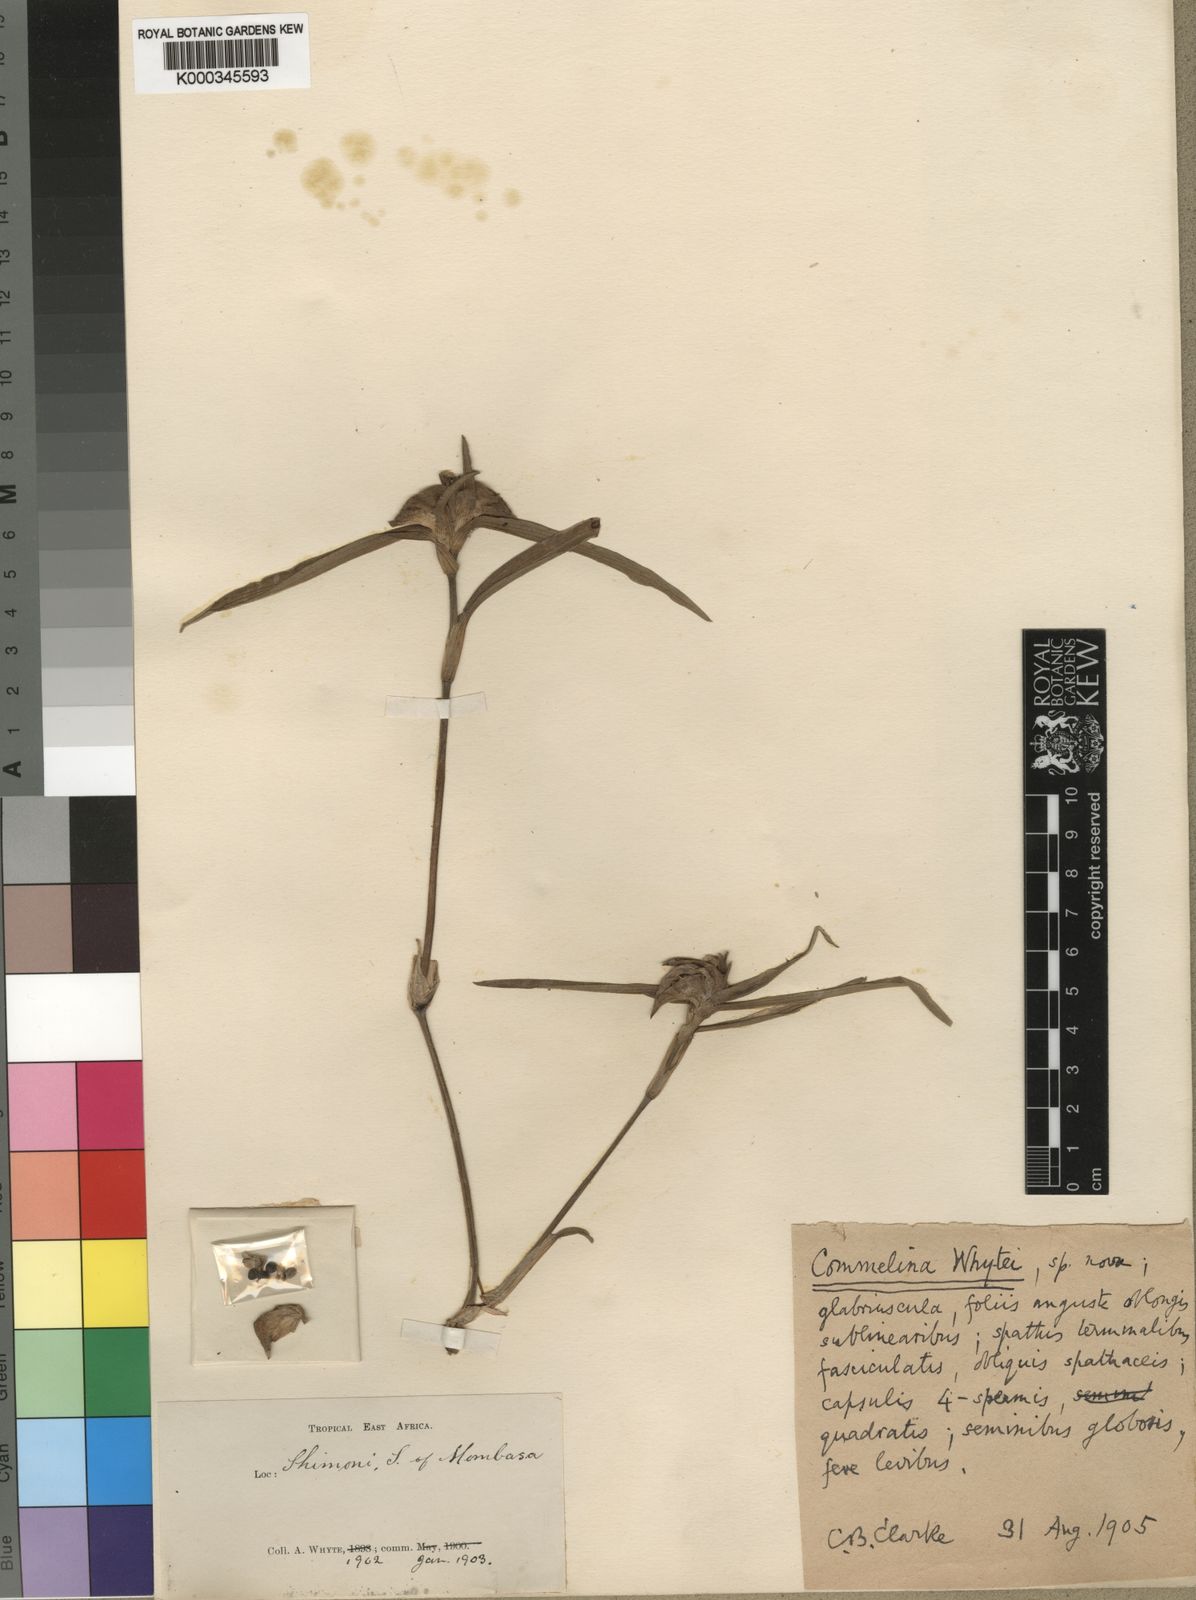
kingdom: Plantae
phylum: Tracheophyta
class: Liliopsida
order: Commelinales
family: Commelinaceae
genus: Commelina
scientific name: Commelina
